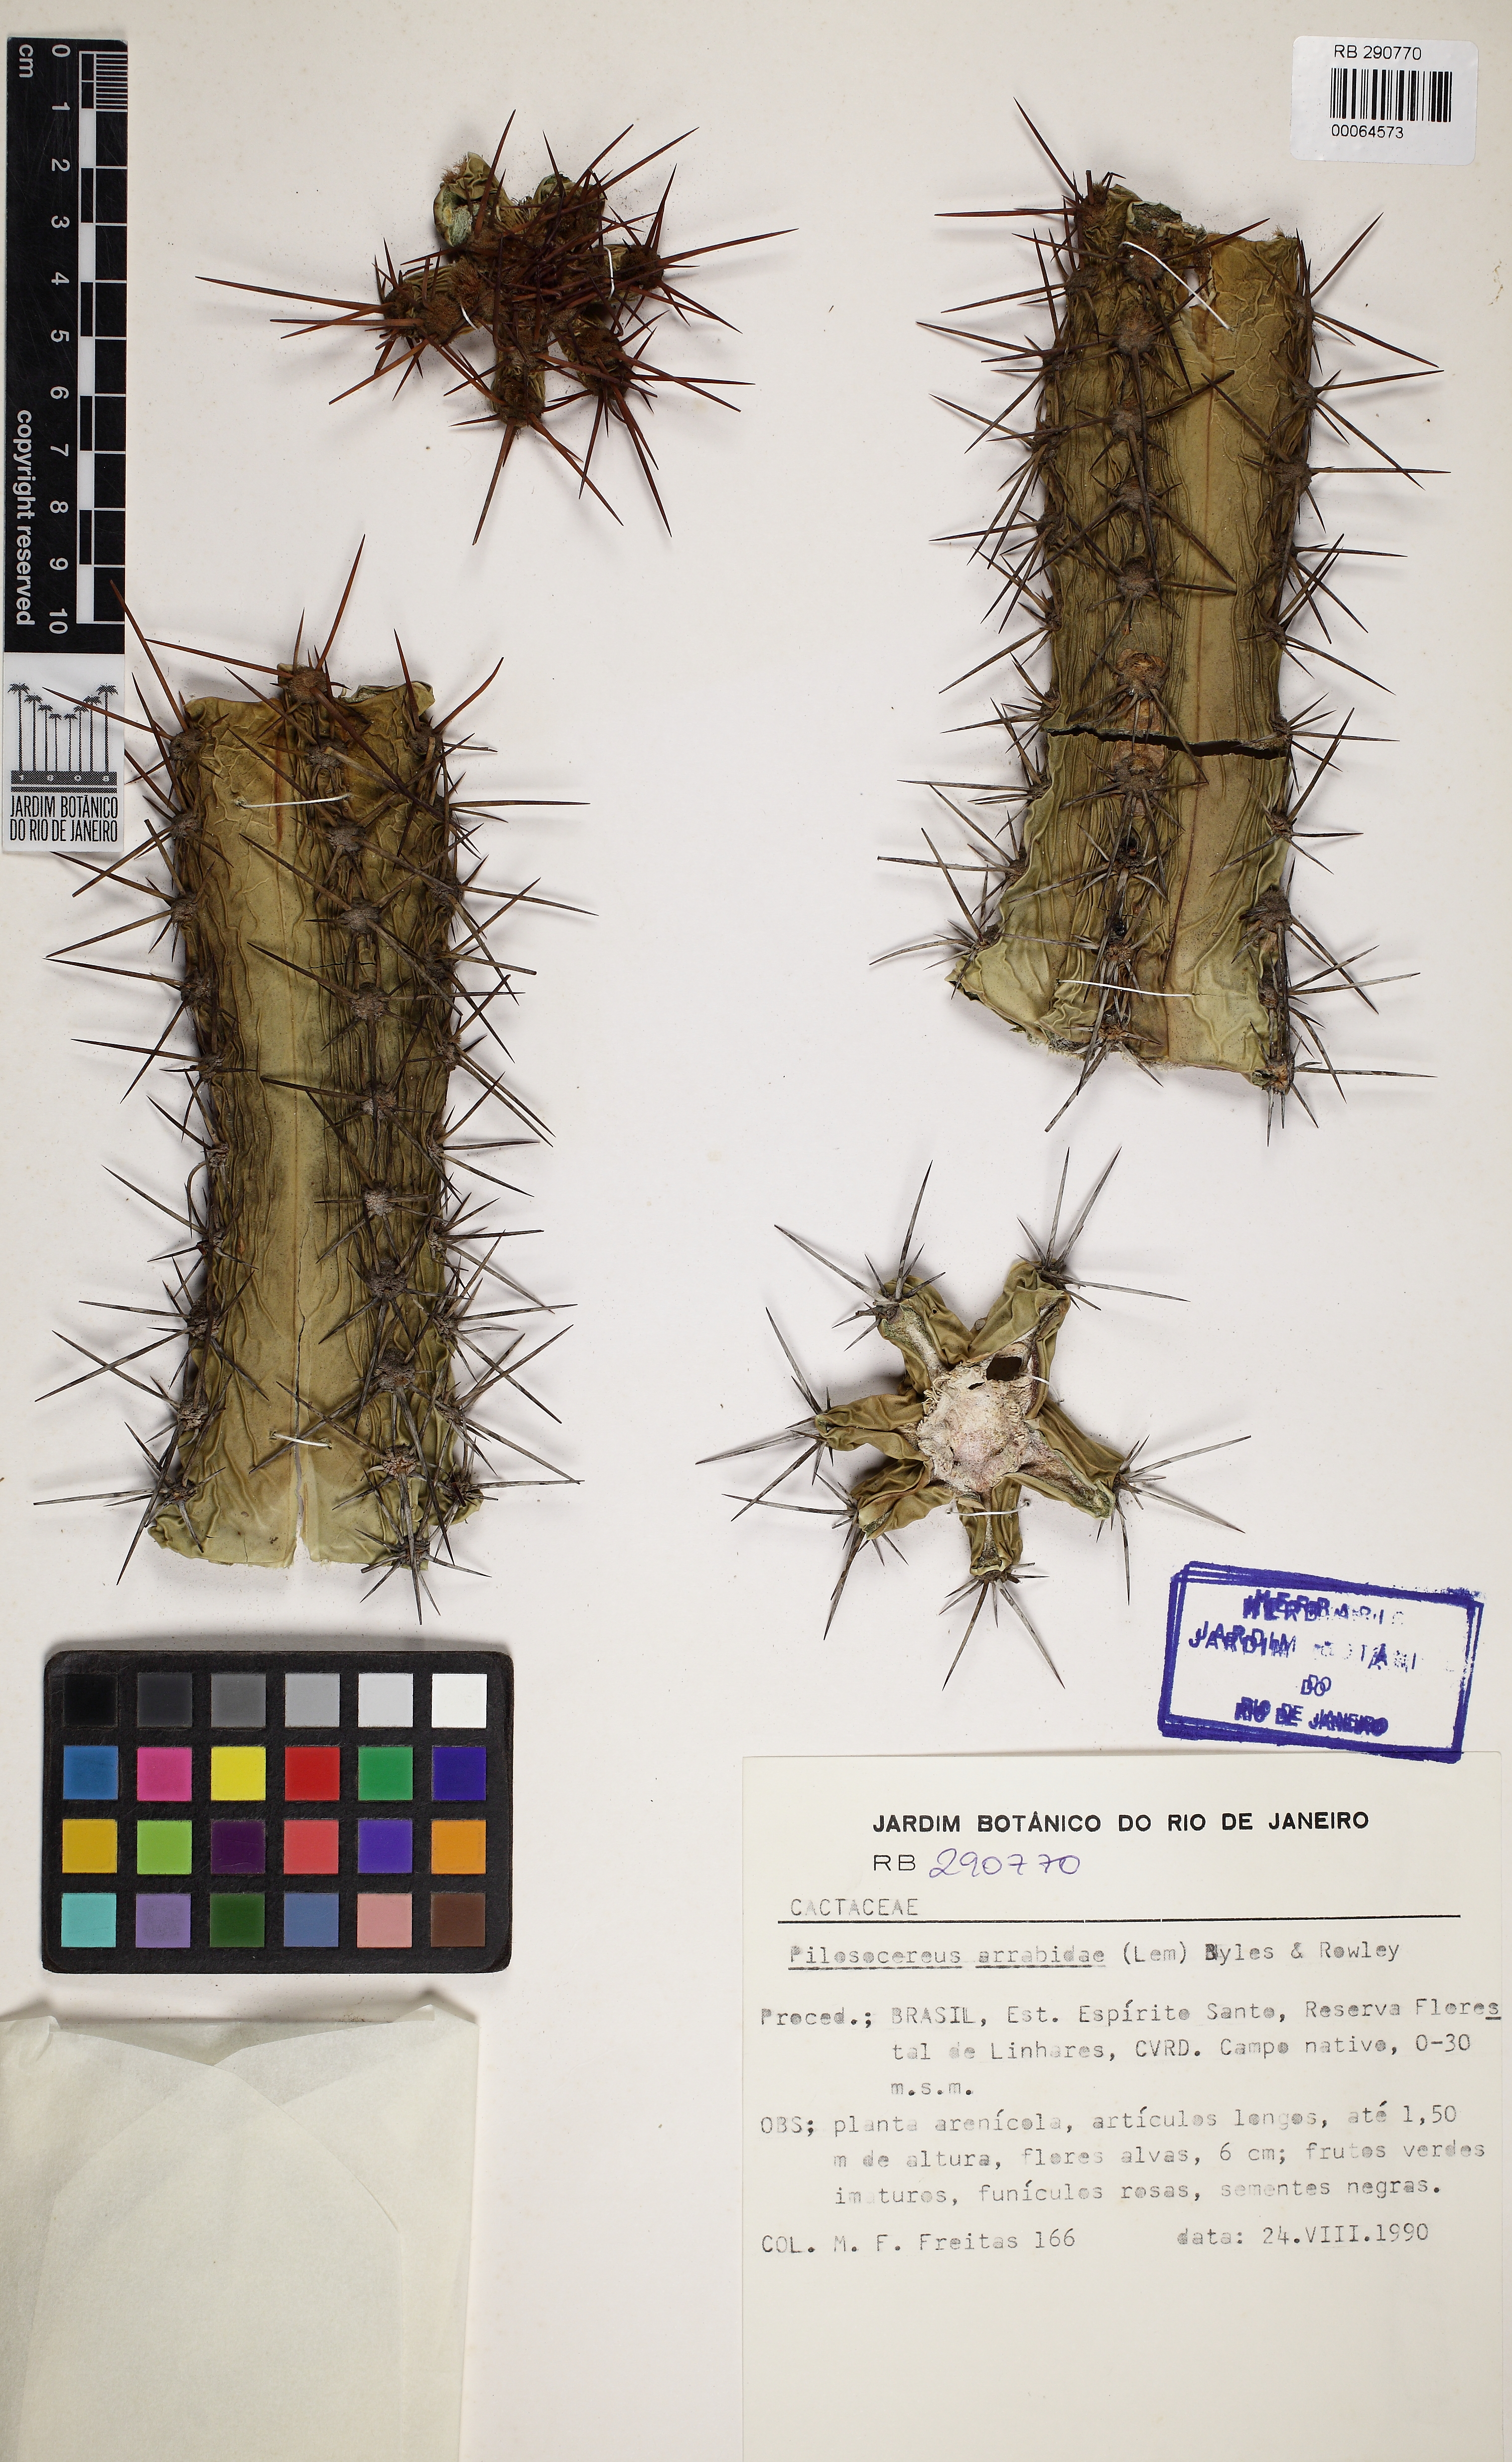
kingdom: Plantae
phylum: Tracheophyta
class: Magnoliopsida
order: Caryophyllales
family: Cactaceae
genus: Pilosocereus
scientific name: Pilosocereus arrabidae
